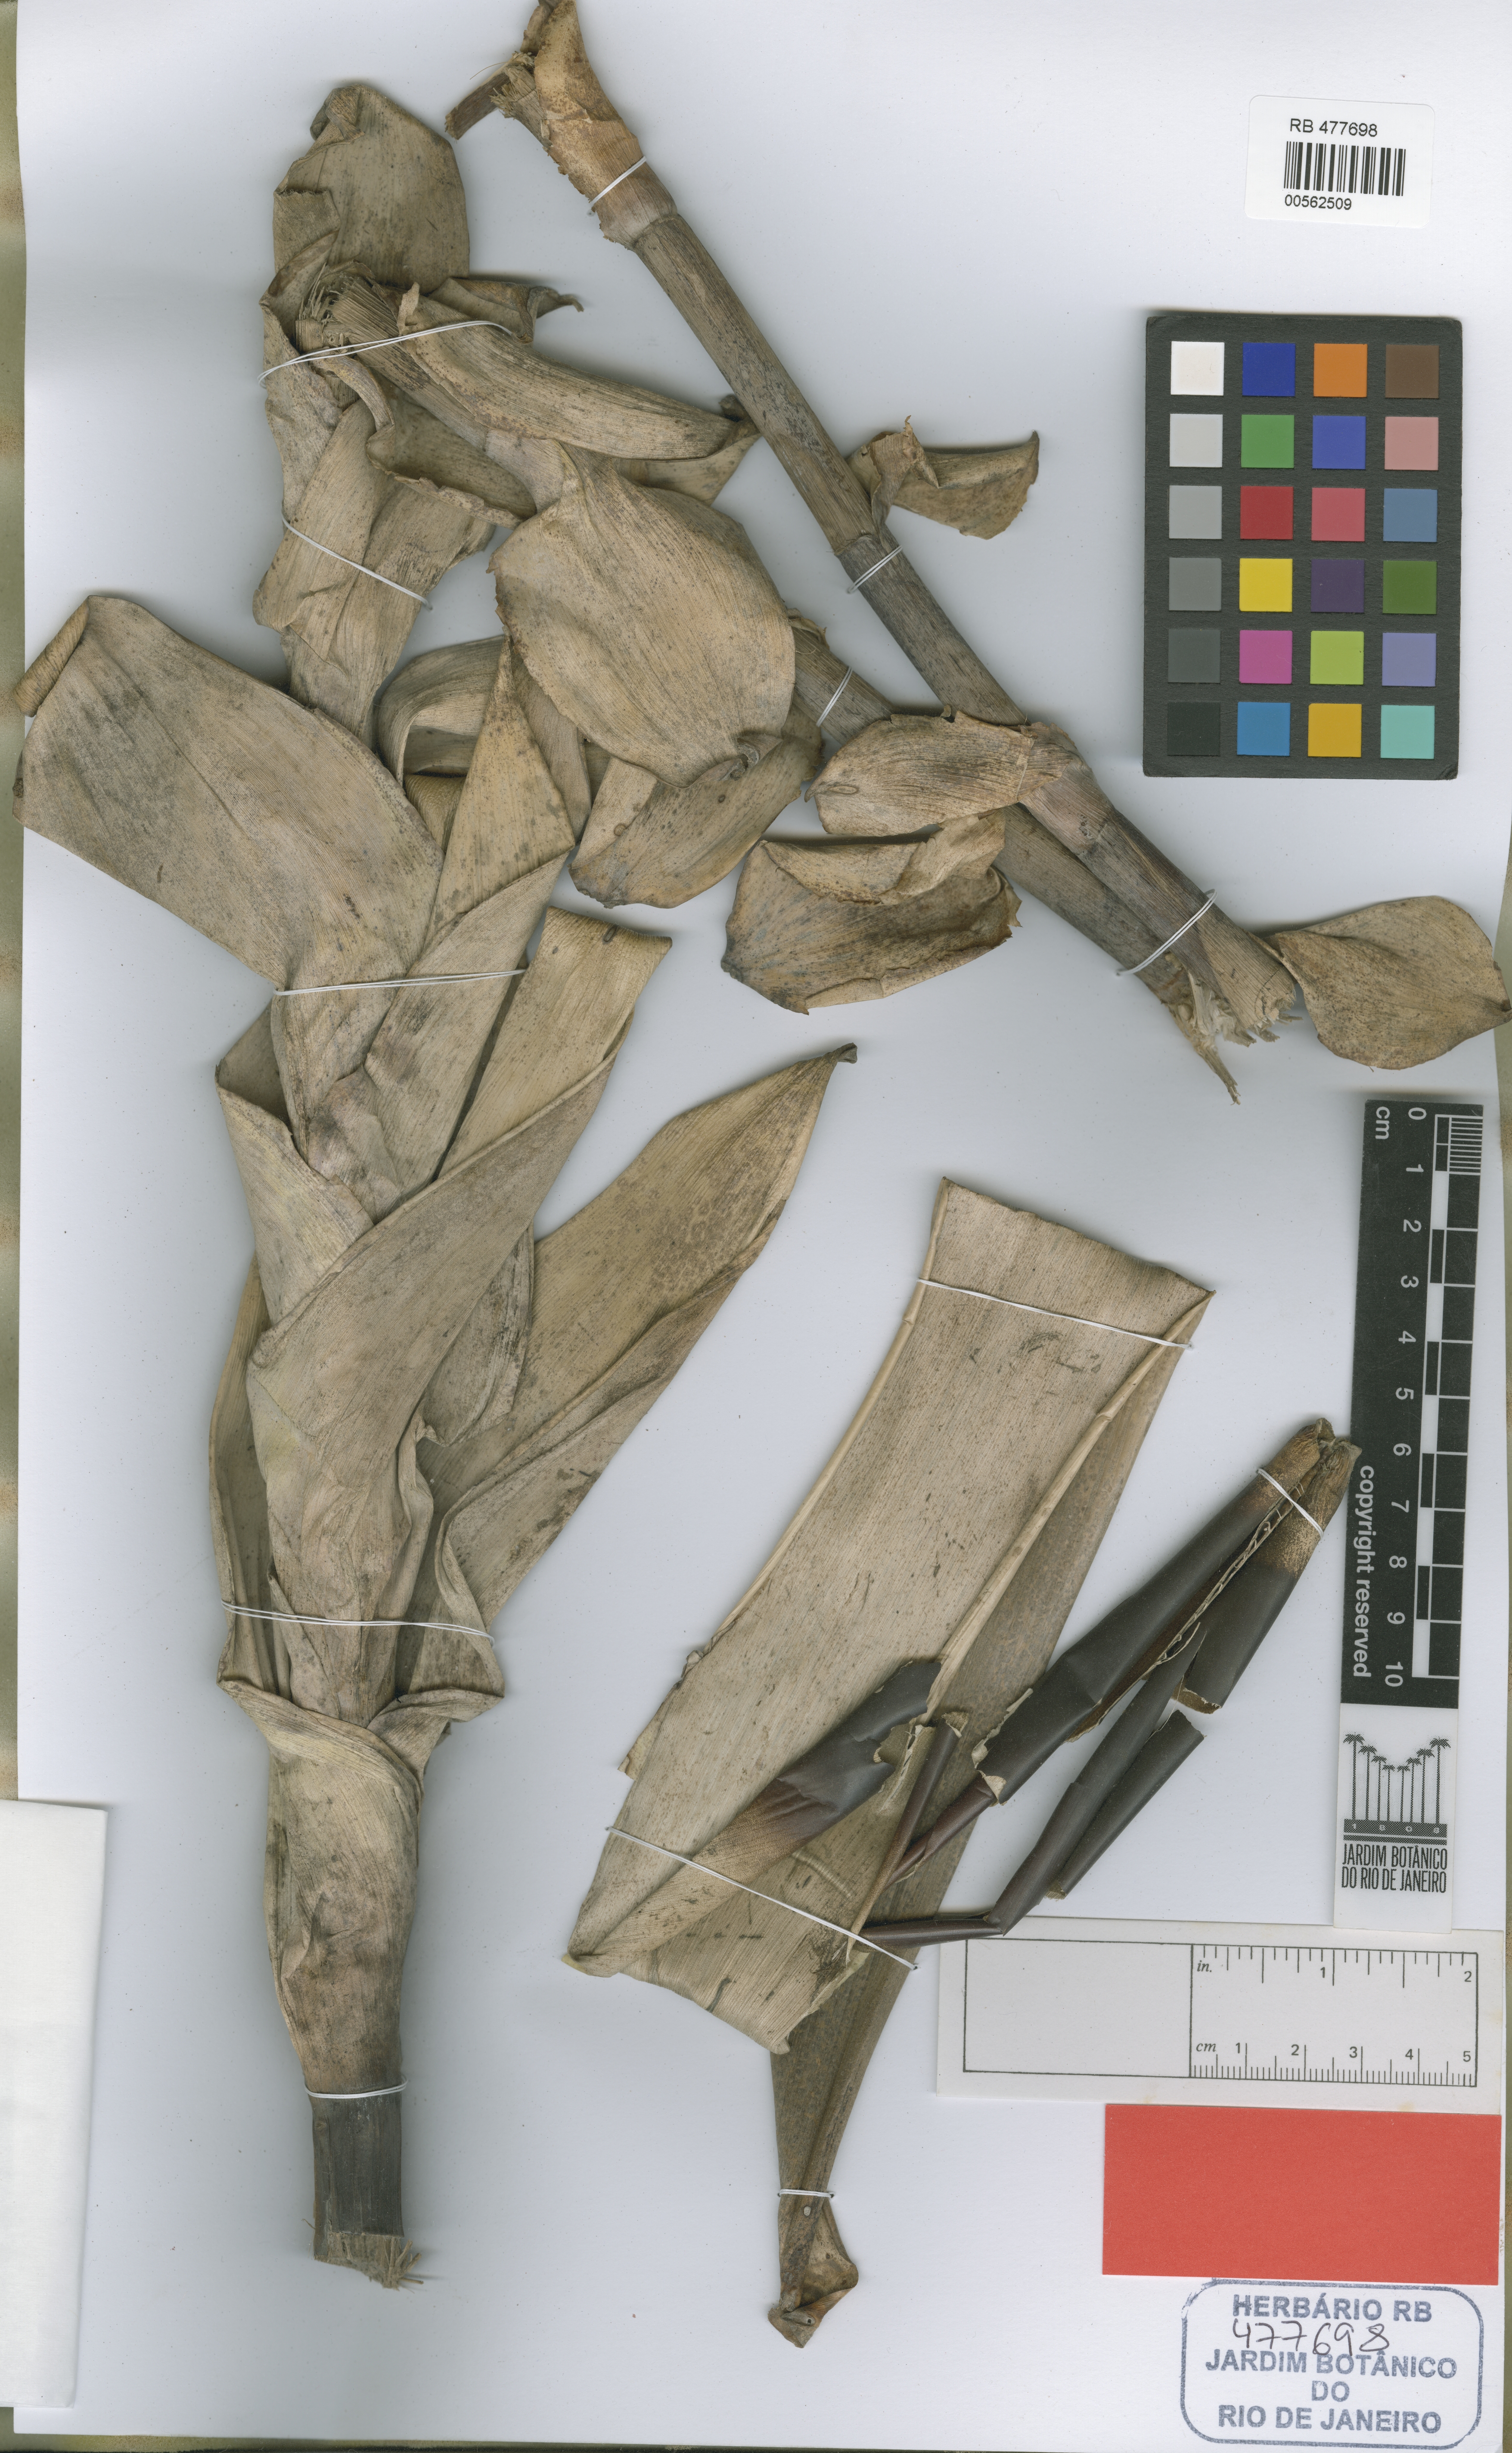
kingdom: Plantae
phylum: Tracheophyta
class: Liliopsida
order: Poales
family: Bromeliaceae
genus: Alcantarea
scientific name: Alcantarea simplicisticha
